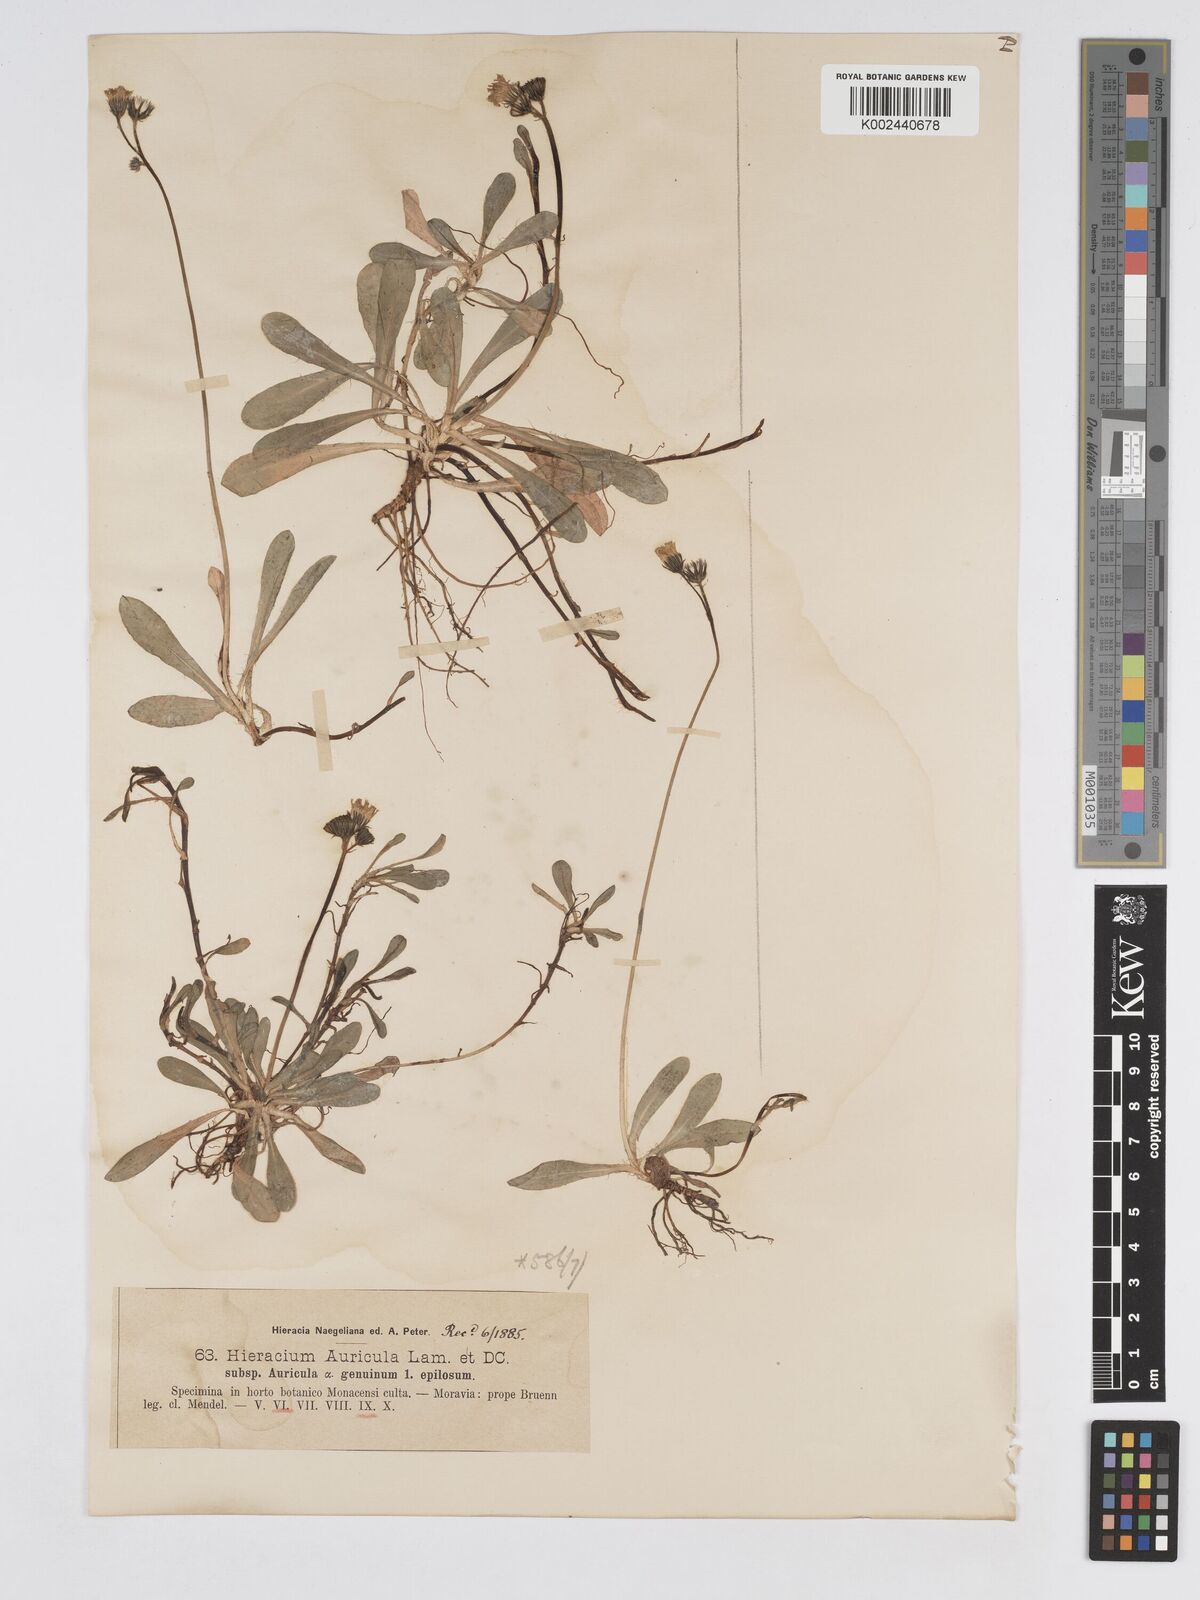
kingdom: Plantae
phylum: Tracheophyta
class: Magnoliopsida
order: Asterales
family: Asteraceae
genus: Pilosella
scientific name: Pilosella floribunda
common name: Glaucous hawkweed
